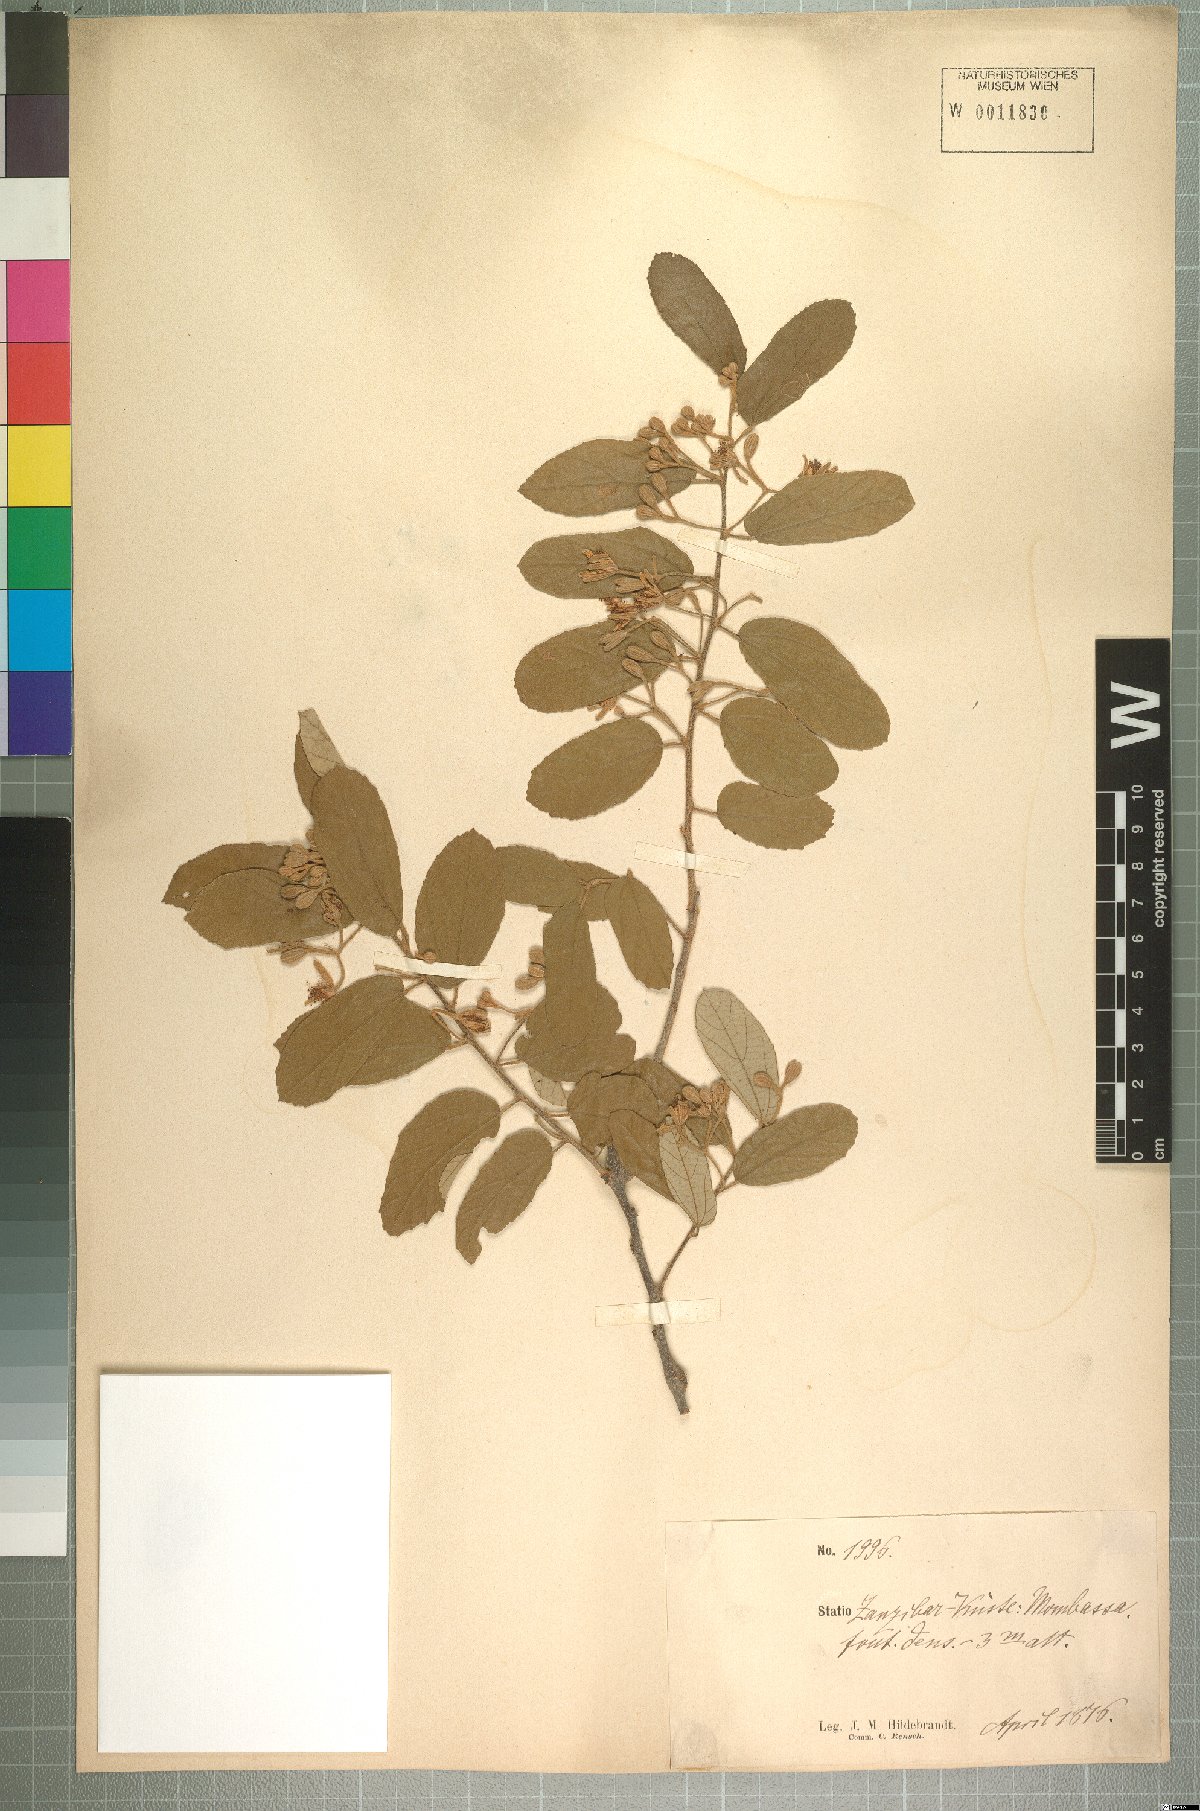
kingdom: Plantae
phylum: Tracheophyta
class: Magnoliopsida
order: Malvales
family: Malvaceae
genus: Grewia
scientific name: Grewia plagiophylla
